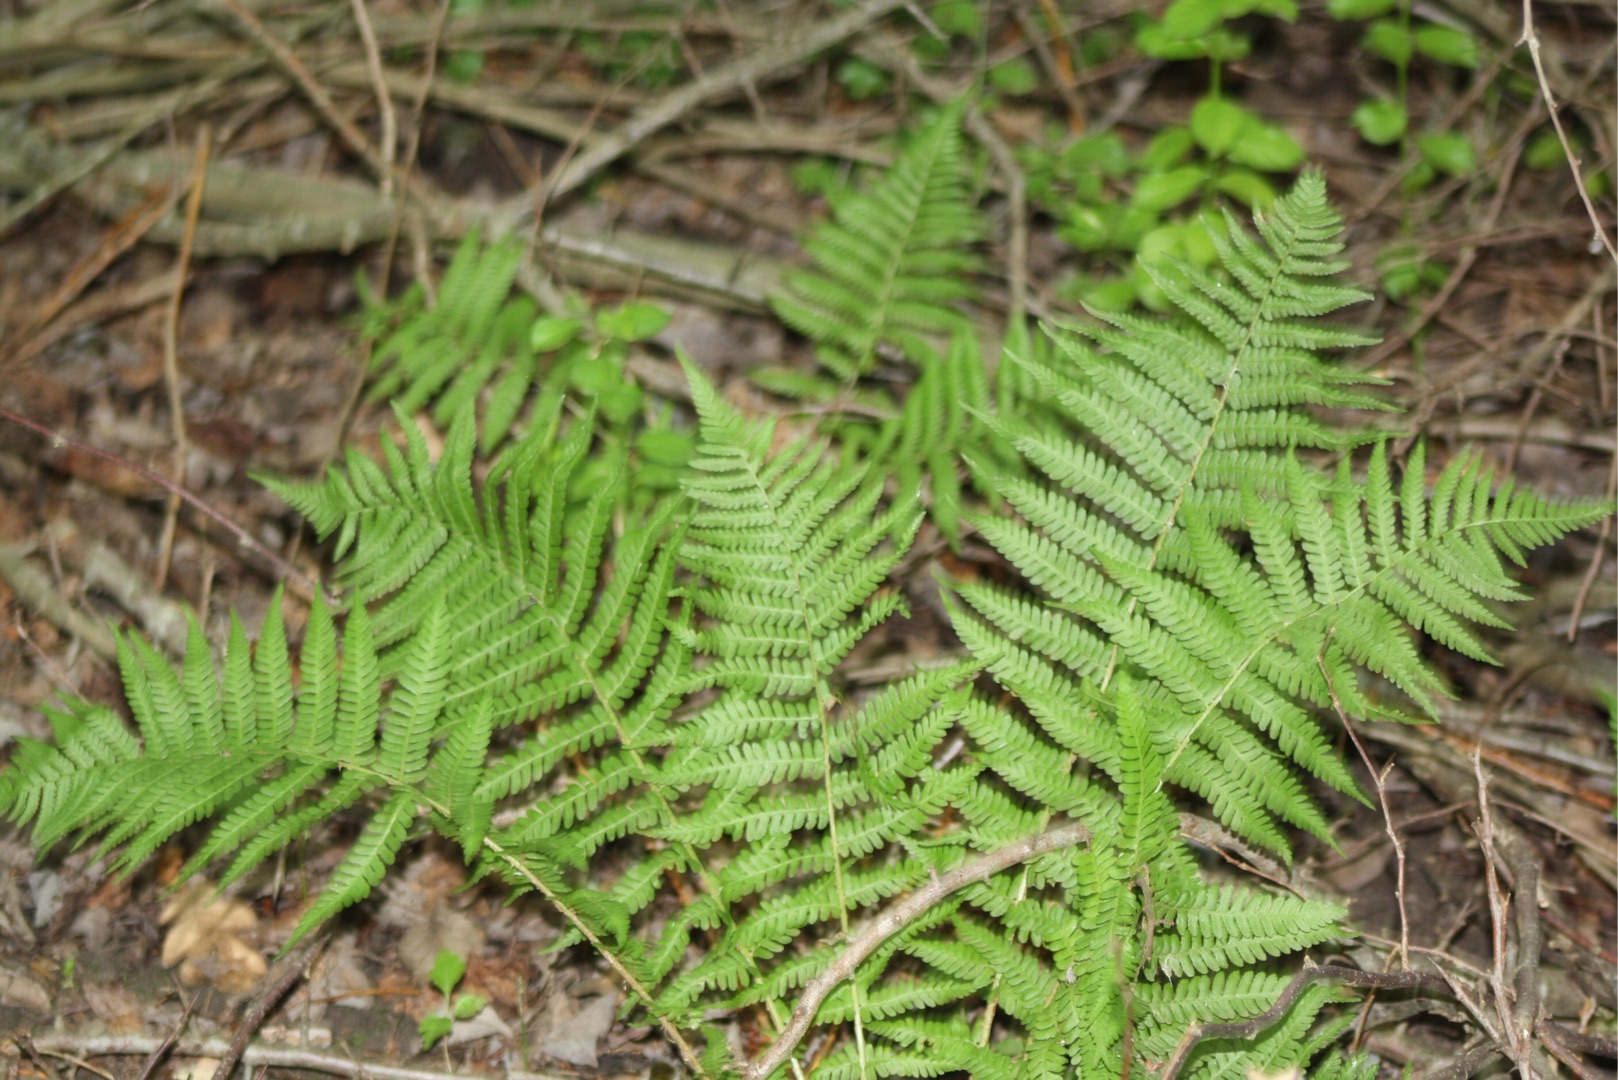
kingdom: Plantae
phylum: Tracheophyta
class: Polypodiopsida
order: Polypodiales
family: Dryopteridaceae
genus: Dryopteris
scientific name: Dryopteris filix-mas
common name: Almindelig mangeløv
